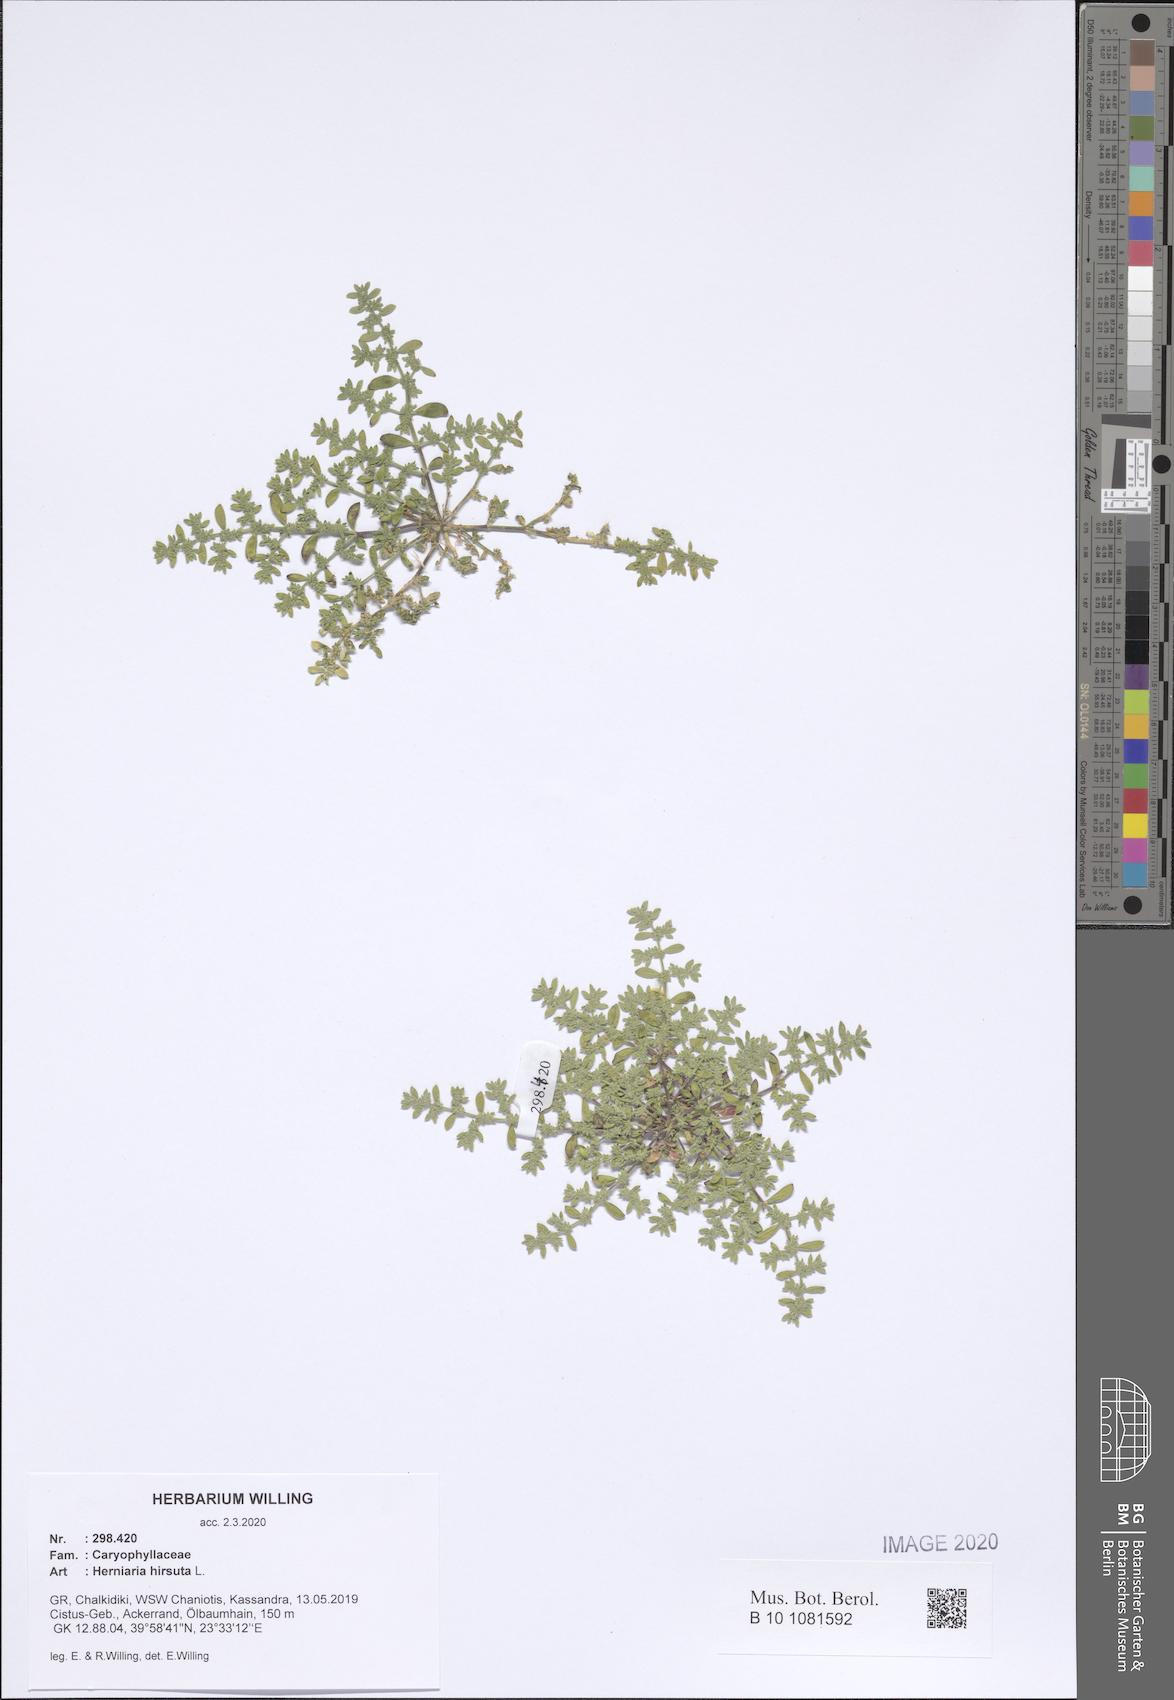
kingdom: Plantae
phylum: Tracheophyta
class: Magnoliopsida
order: Caryophyllales
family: Caryophyllaceae
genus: Herniaria
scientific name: Herniaria hirsuta
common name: Hairy rupturewort
